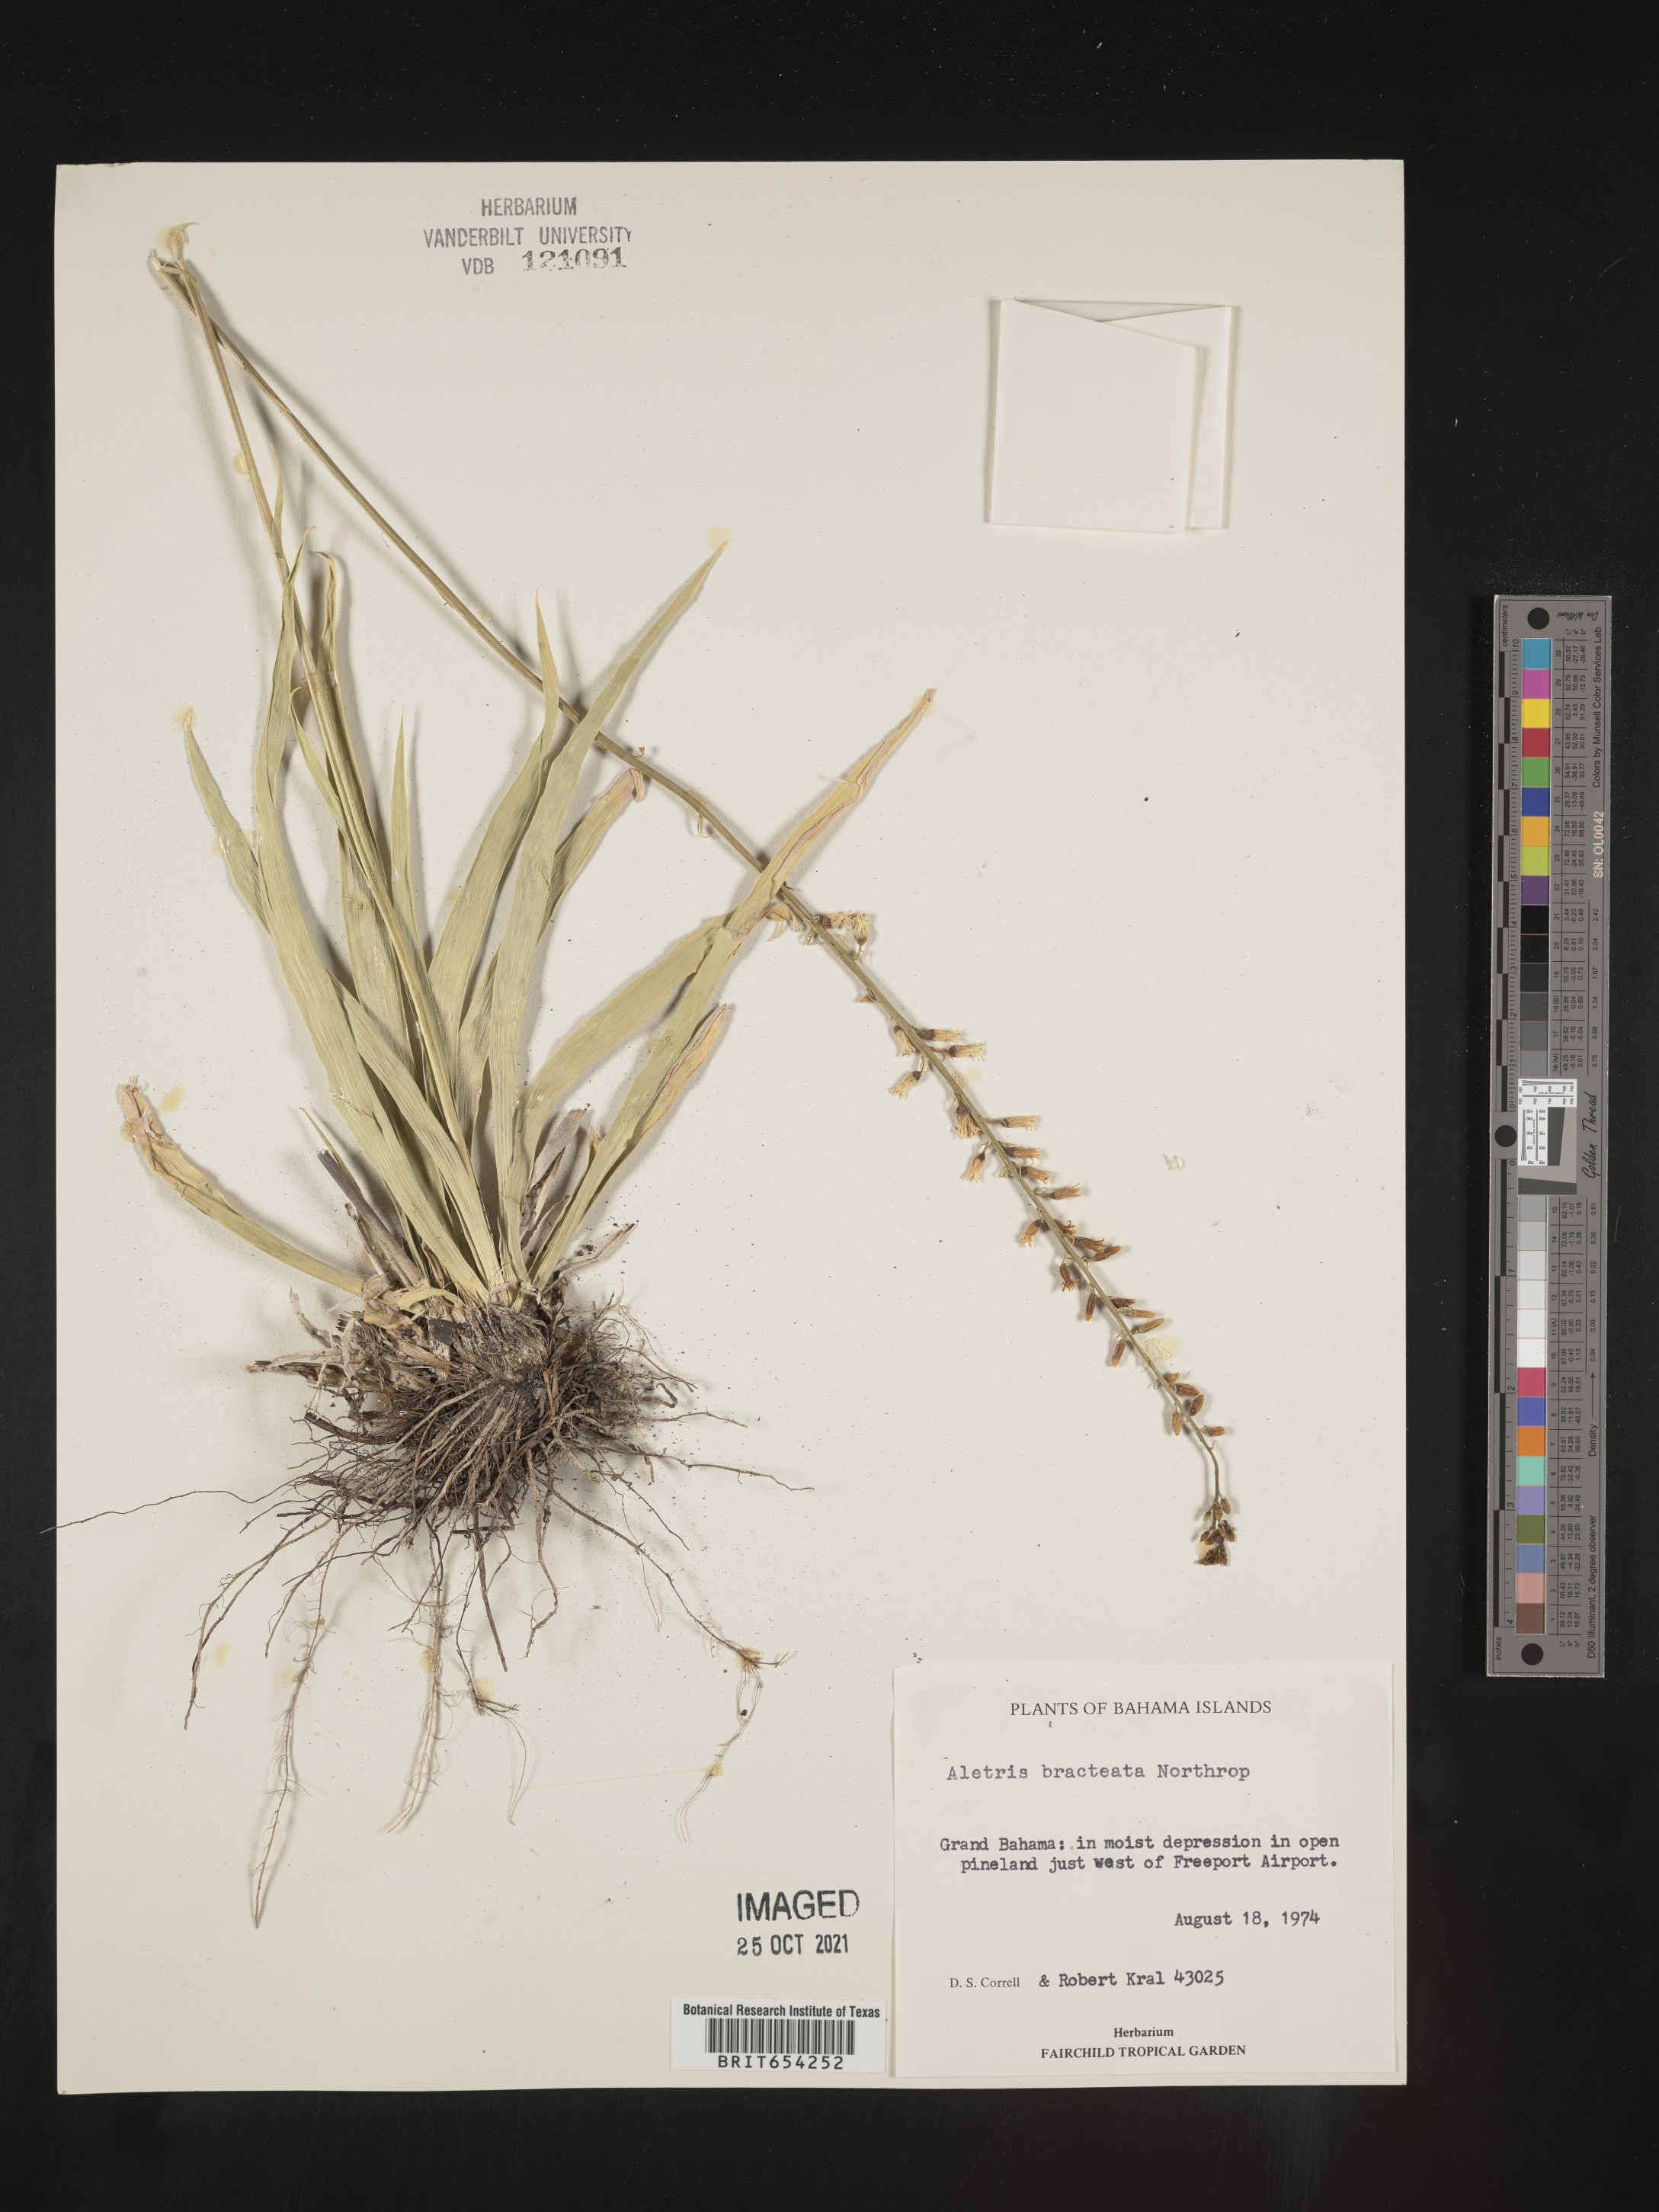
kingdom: Plantae
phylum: Tracheophyta
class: Liliopsida
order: Dioscoreales
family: Nartheciaceae
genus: Aletris
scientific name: Aletris
